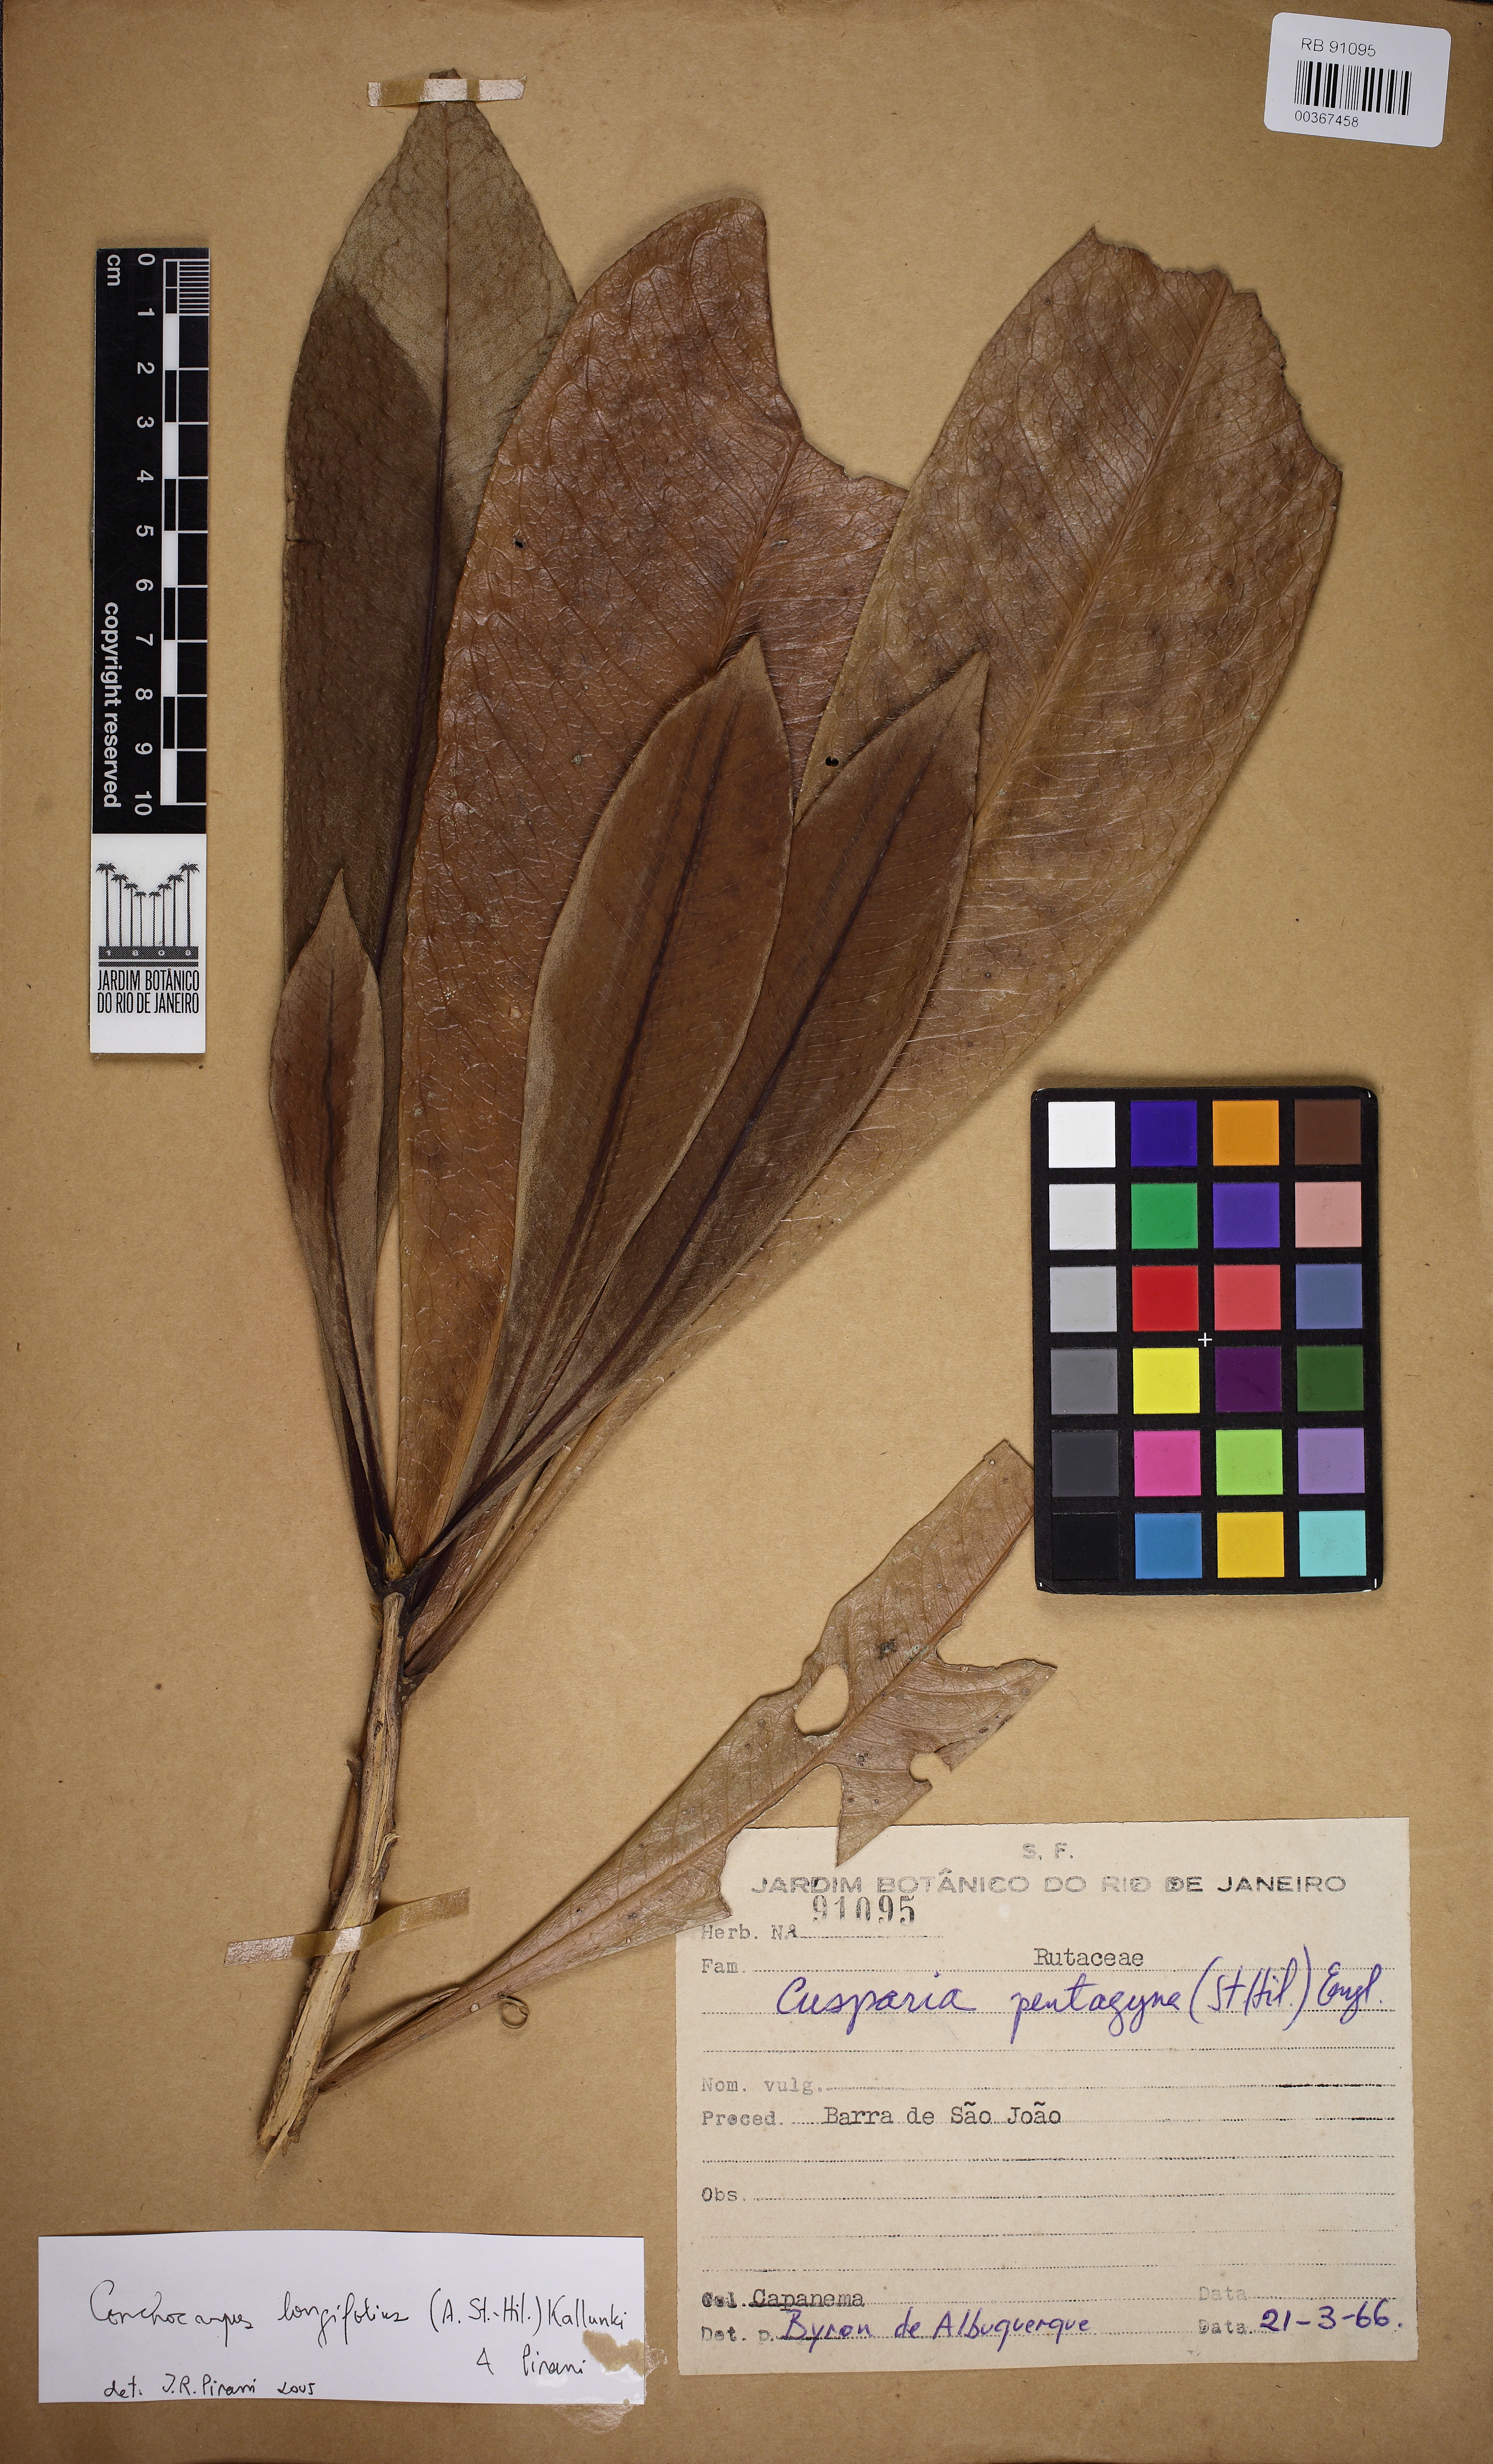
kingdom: Plantae
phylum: Tracheophyta
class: Magnoliopsida
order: Sapindales
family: Rutaceae
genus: Conchocarpus
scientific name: Conchocarpus longifolius
